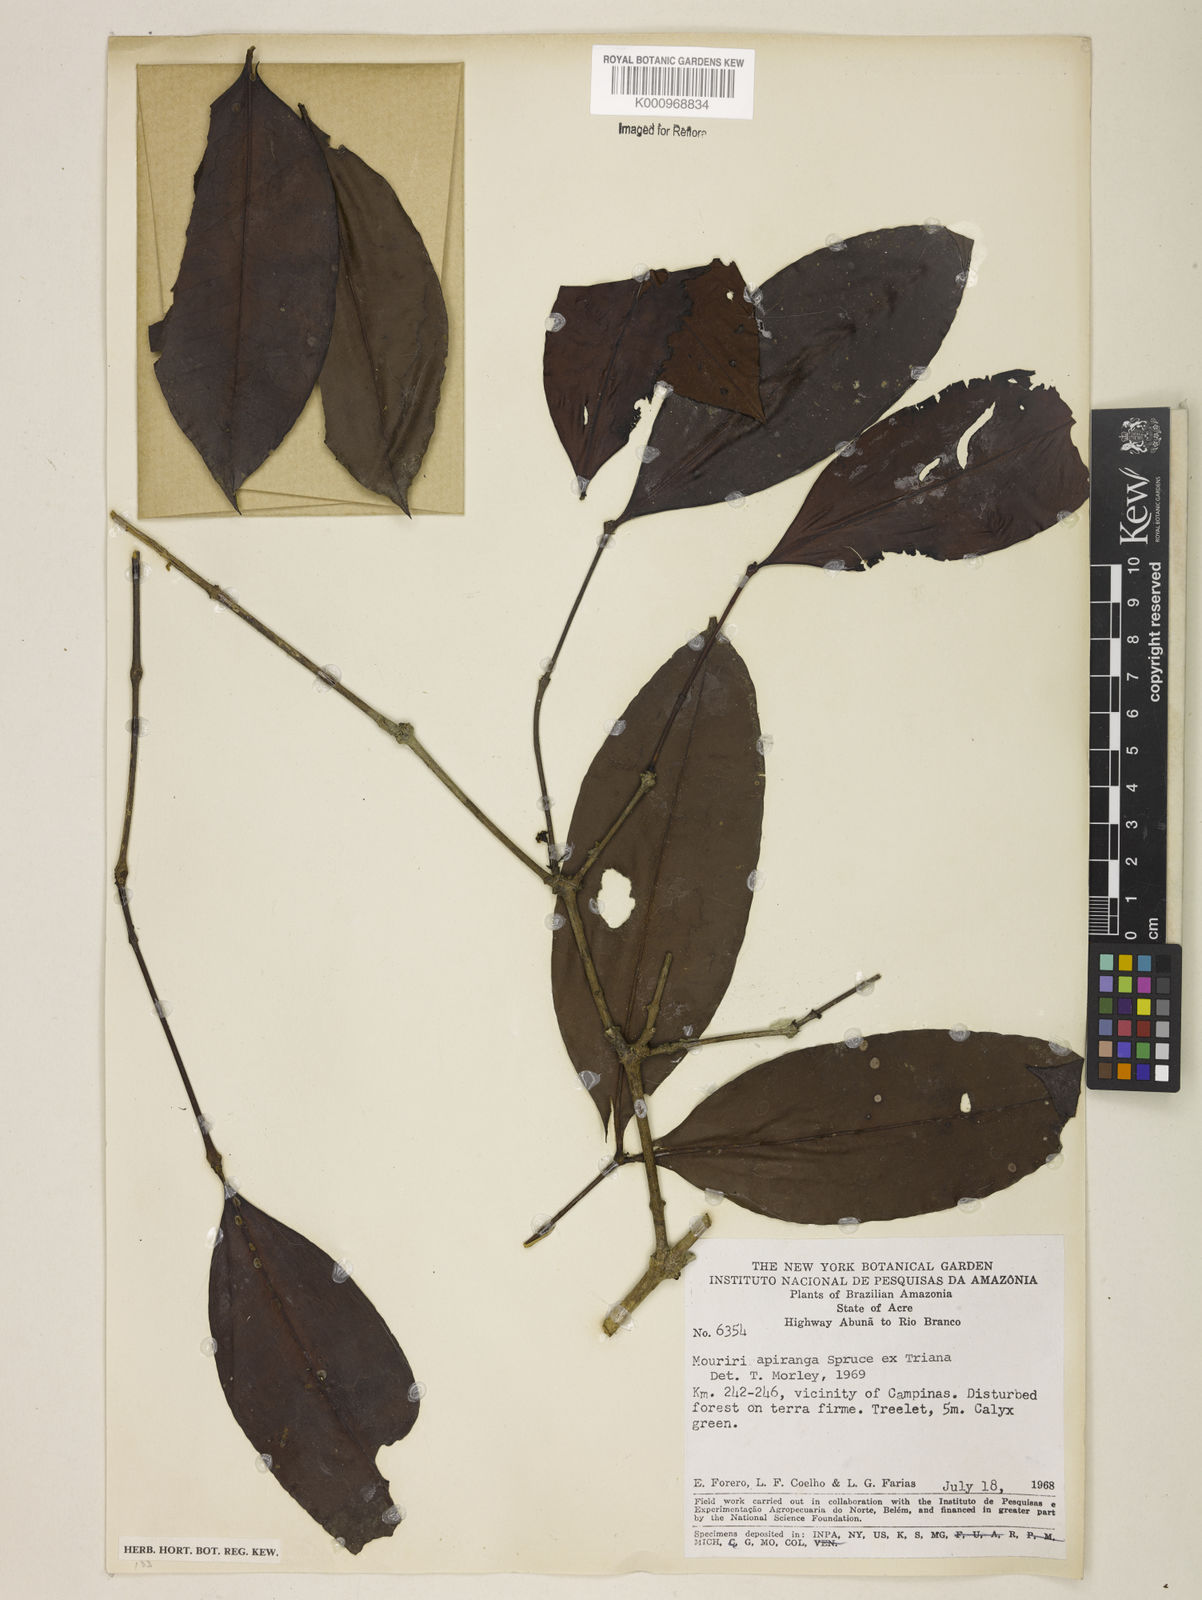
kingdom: Plantae
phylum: Tracheophyta
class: Magnoliopsida
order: Myrtales
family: Melastomataceae
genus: Mouriri
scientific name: Mouriri apiranga
